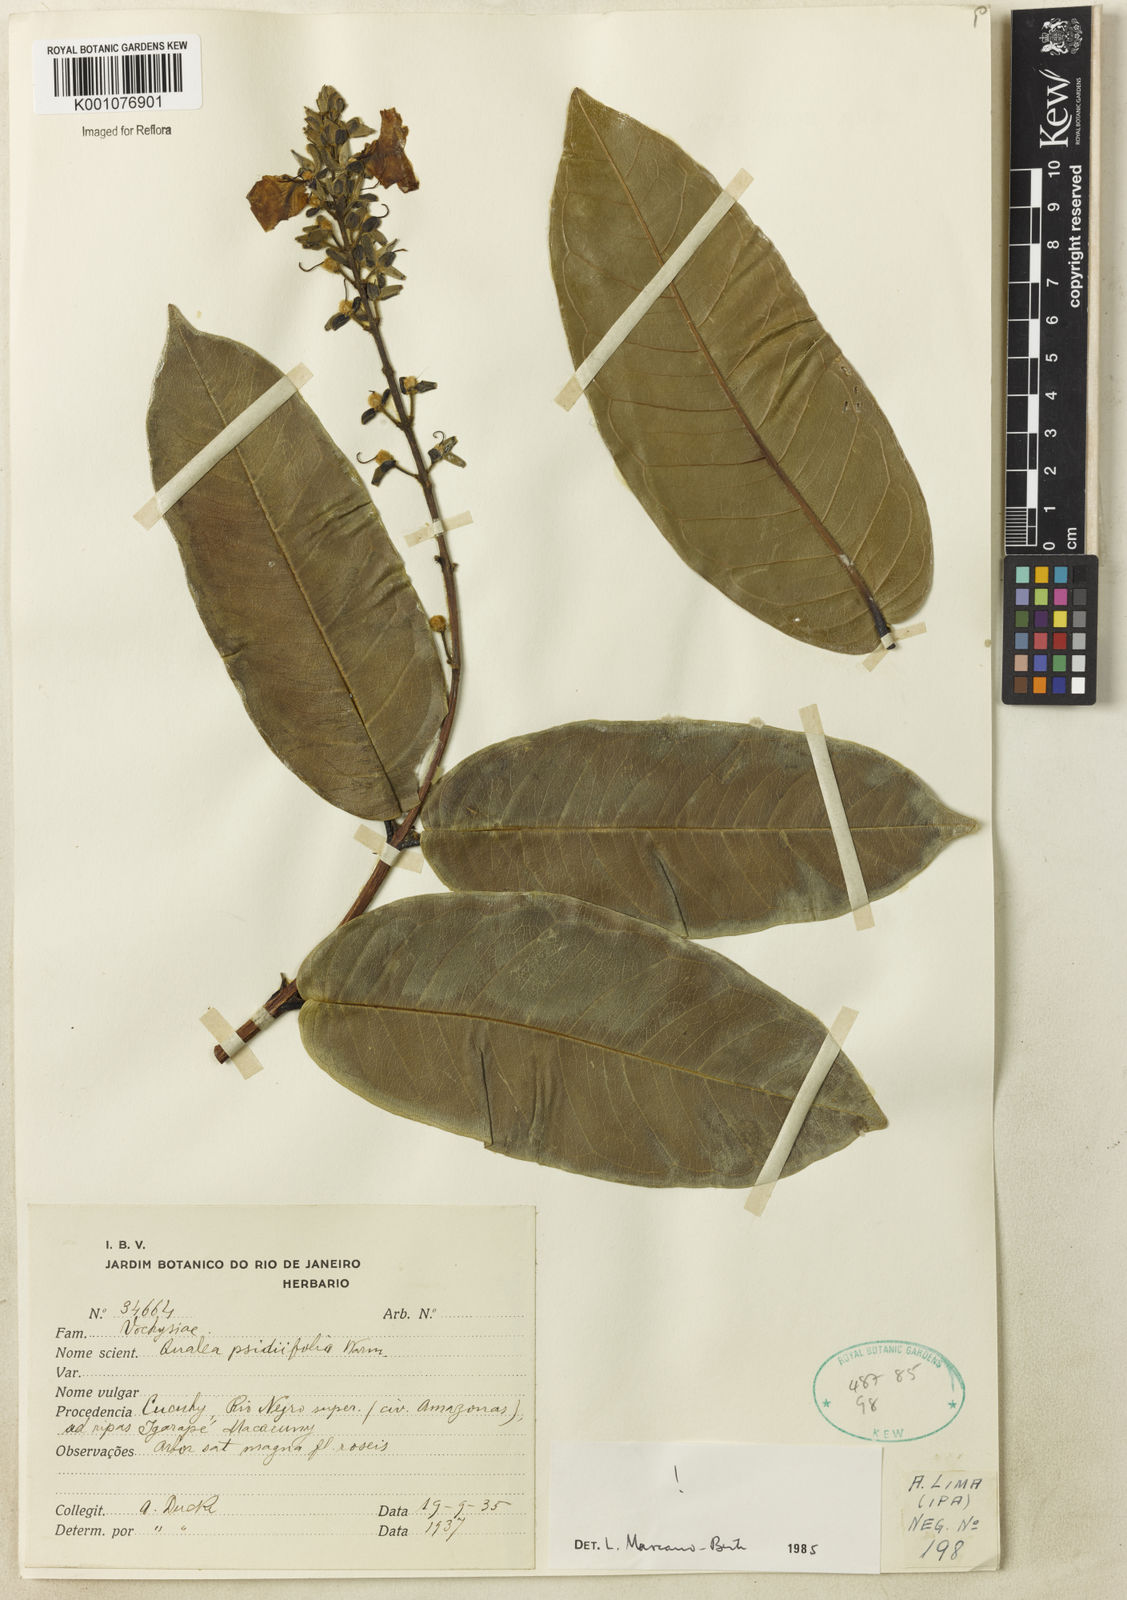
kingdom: Plantae
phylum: Tracheophyta
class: Magnoliopsida
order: Myrtales
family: Vochysiaceae
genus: Qualea
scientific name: Qualea psidiifolia
